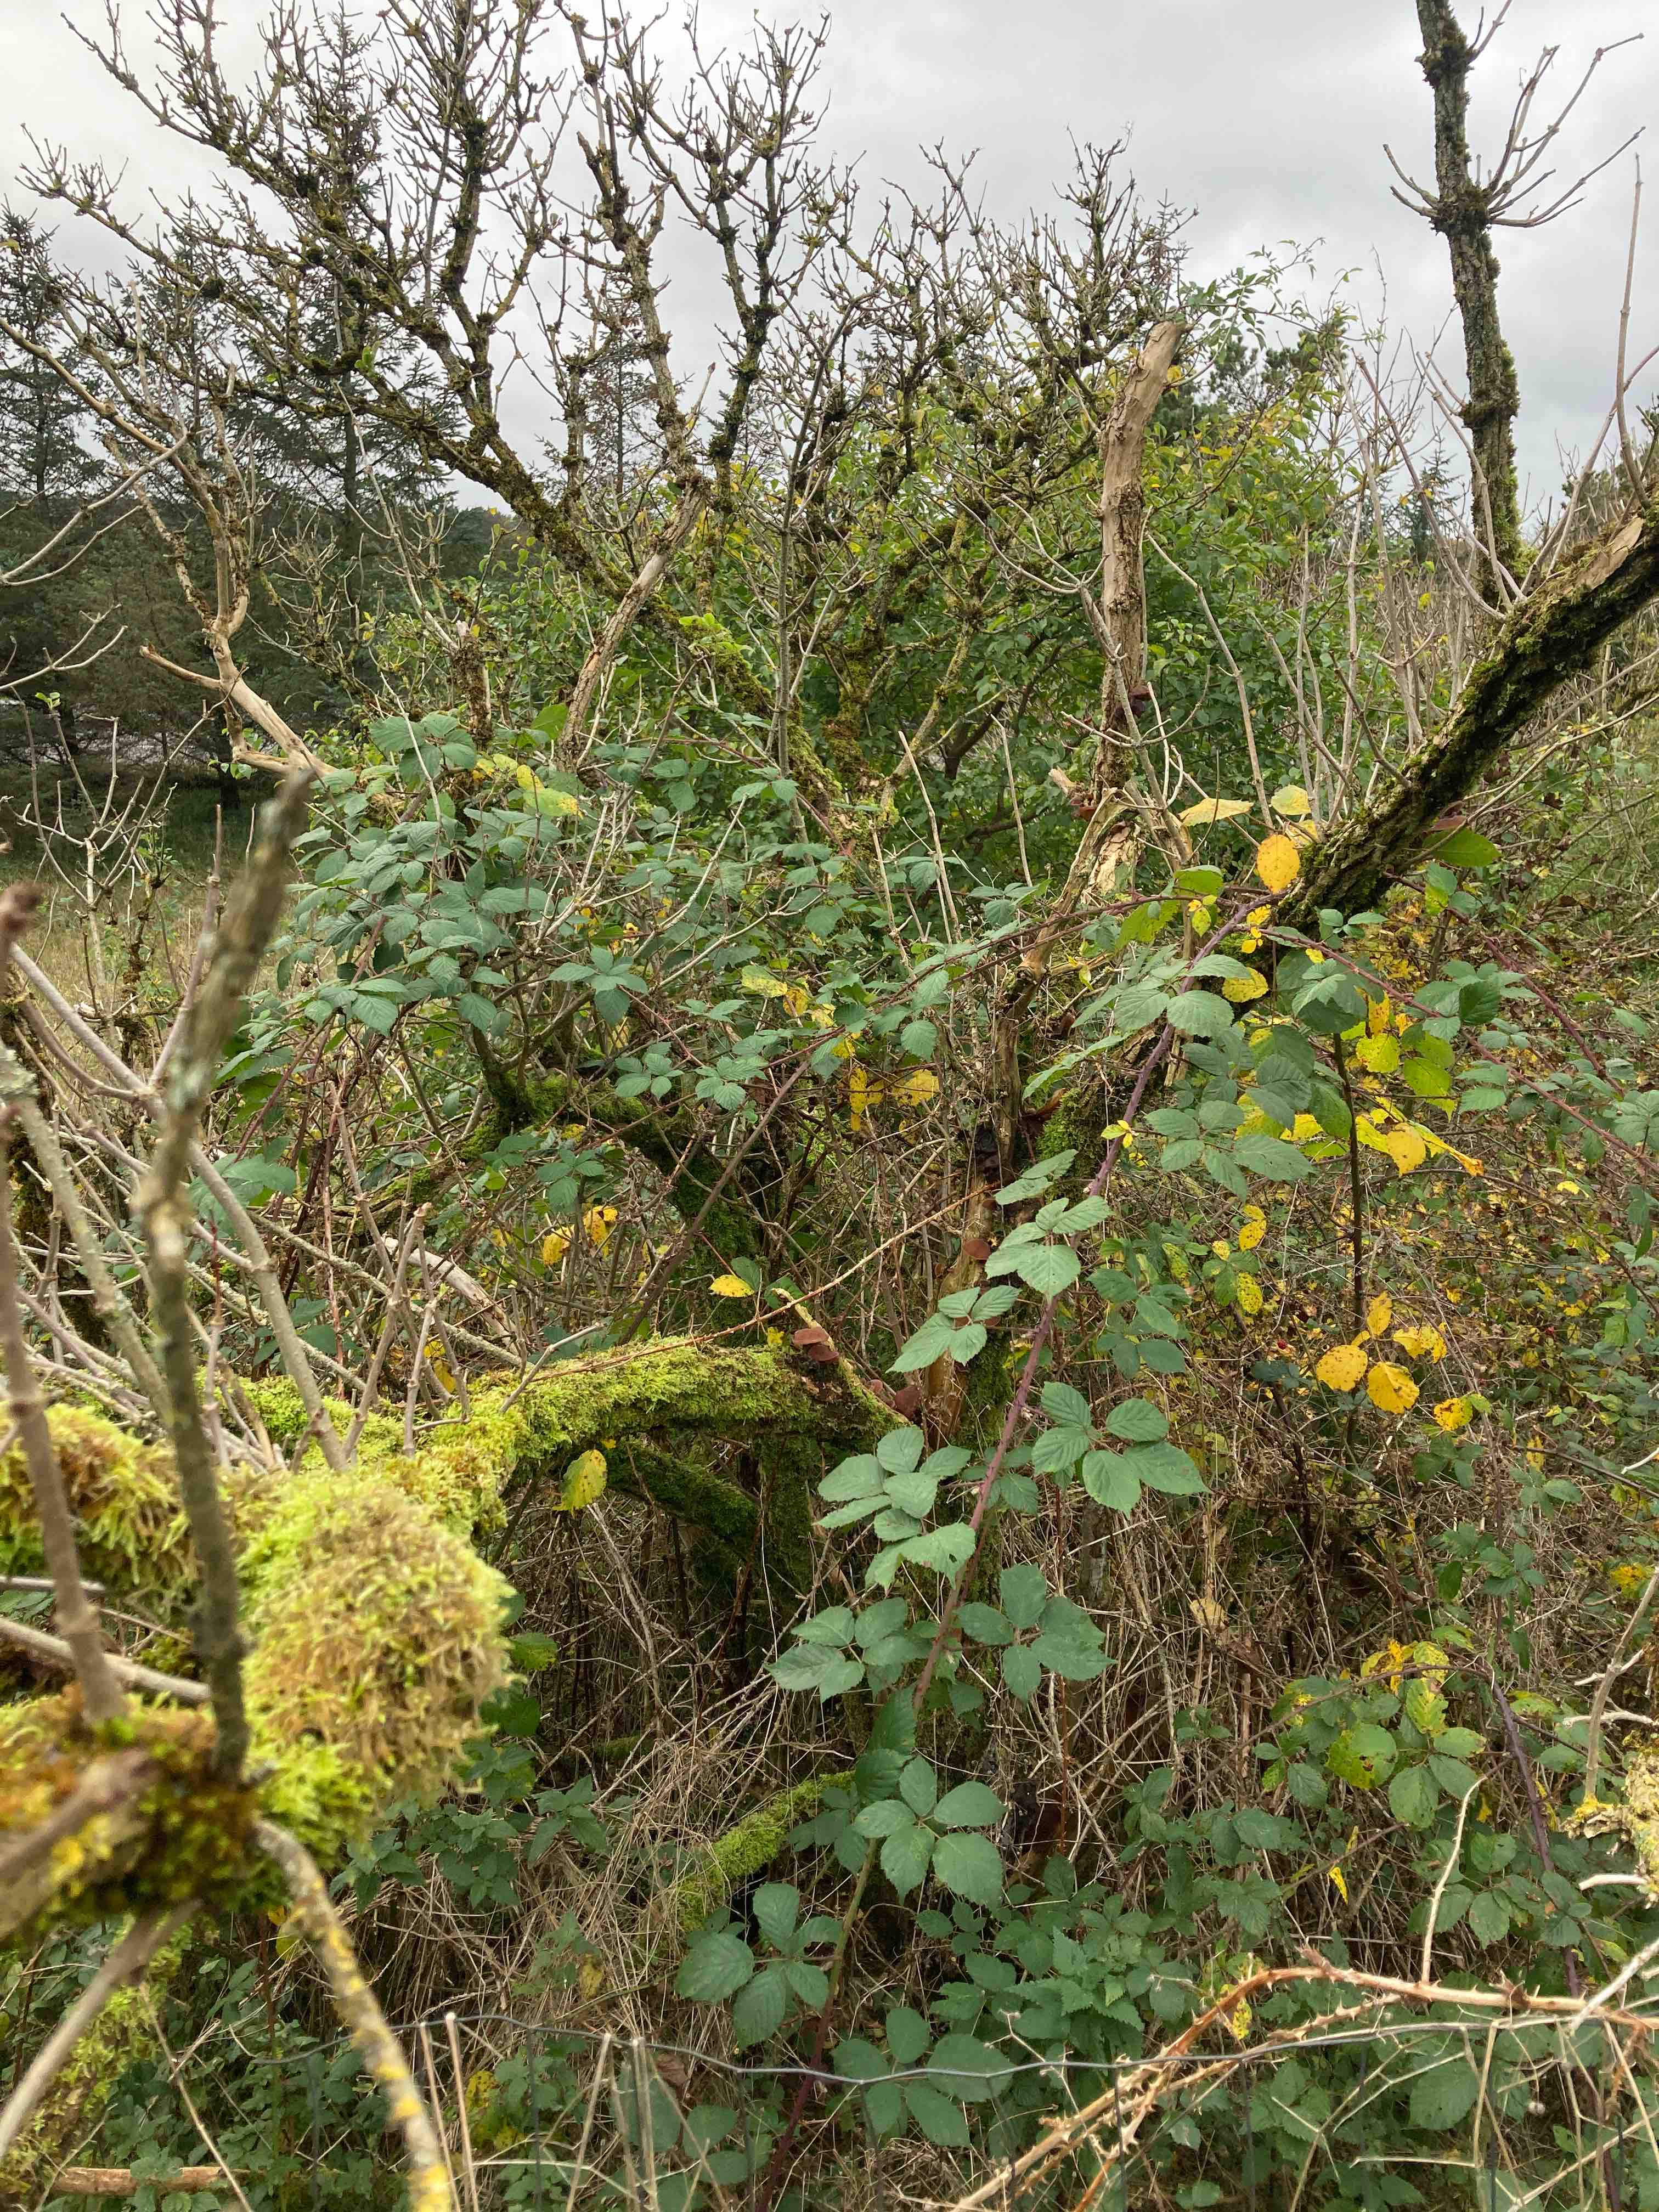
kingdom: Fungi
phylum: Basidiomycota
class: Agaricomycetes
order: Auriculariales
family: Auriculariaceae
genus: Auricularia
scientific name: Auricularia auricula-judae
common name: almindelig judasøre
